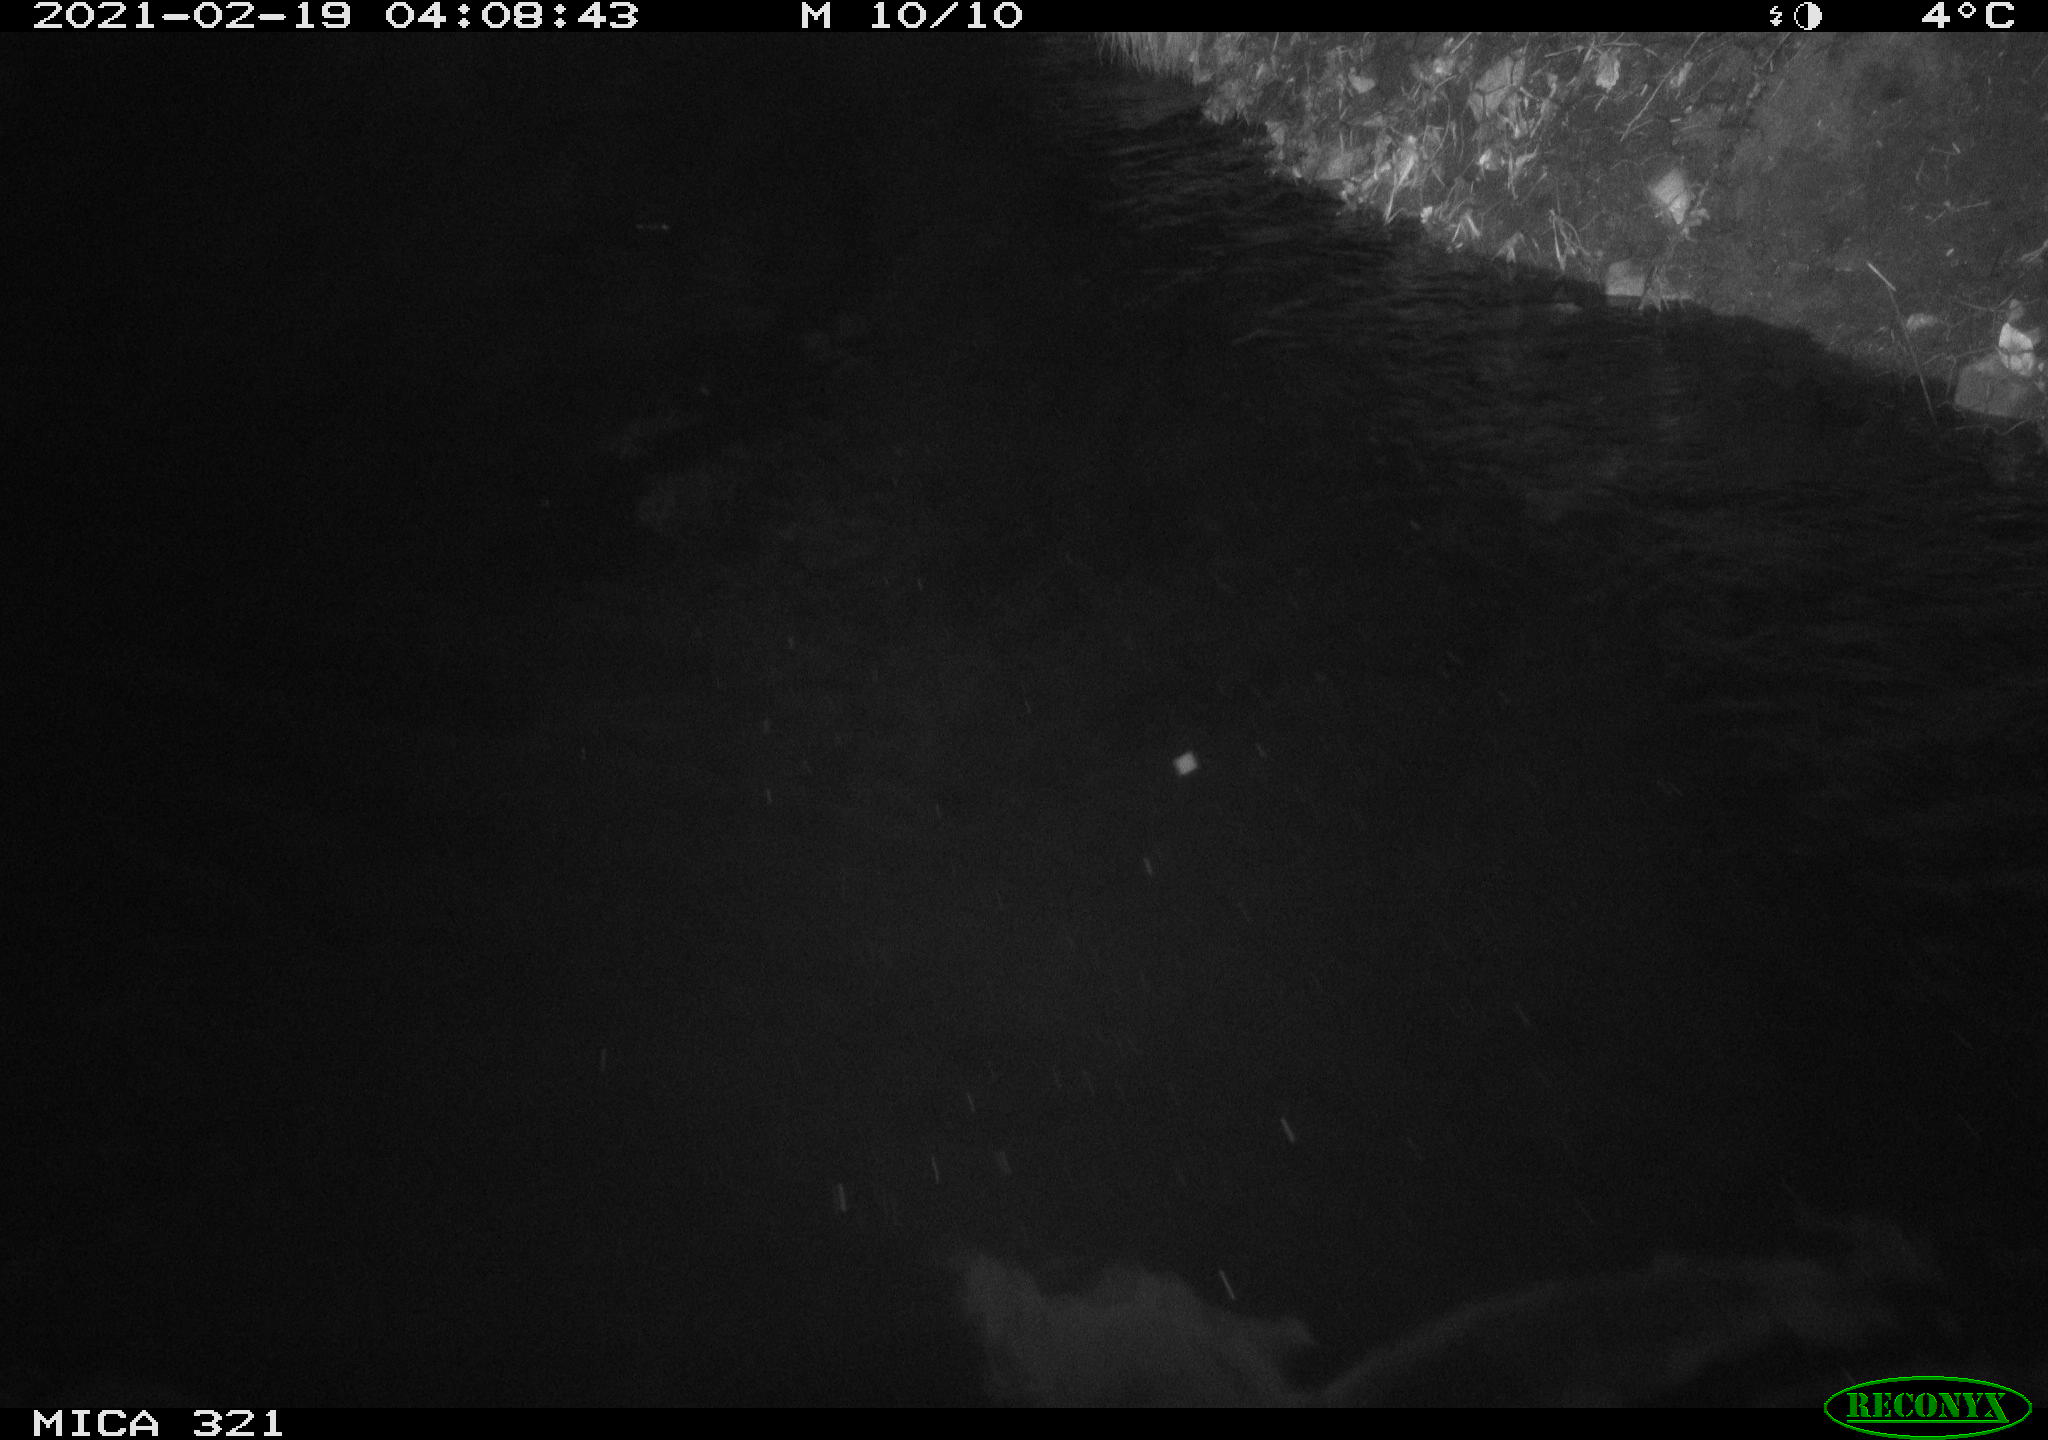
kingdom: Animalia
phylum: Chordata
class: Mammalia
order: Rodentia
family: Muridae
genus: Rattus
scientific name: Rattus norvegicus
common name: Brown rat
